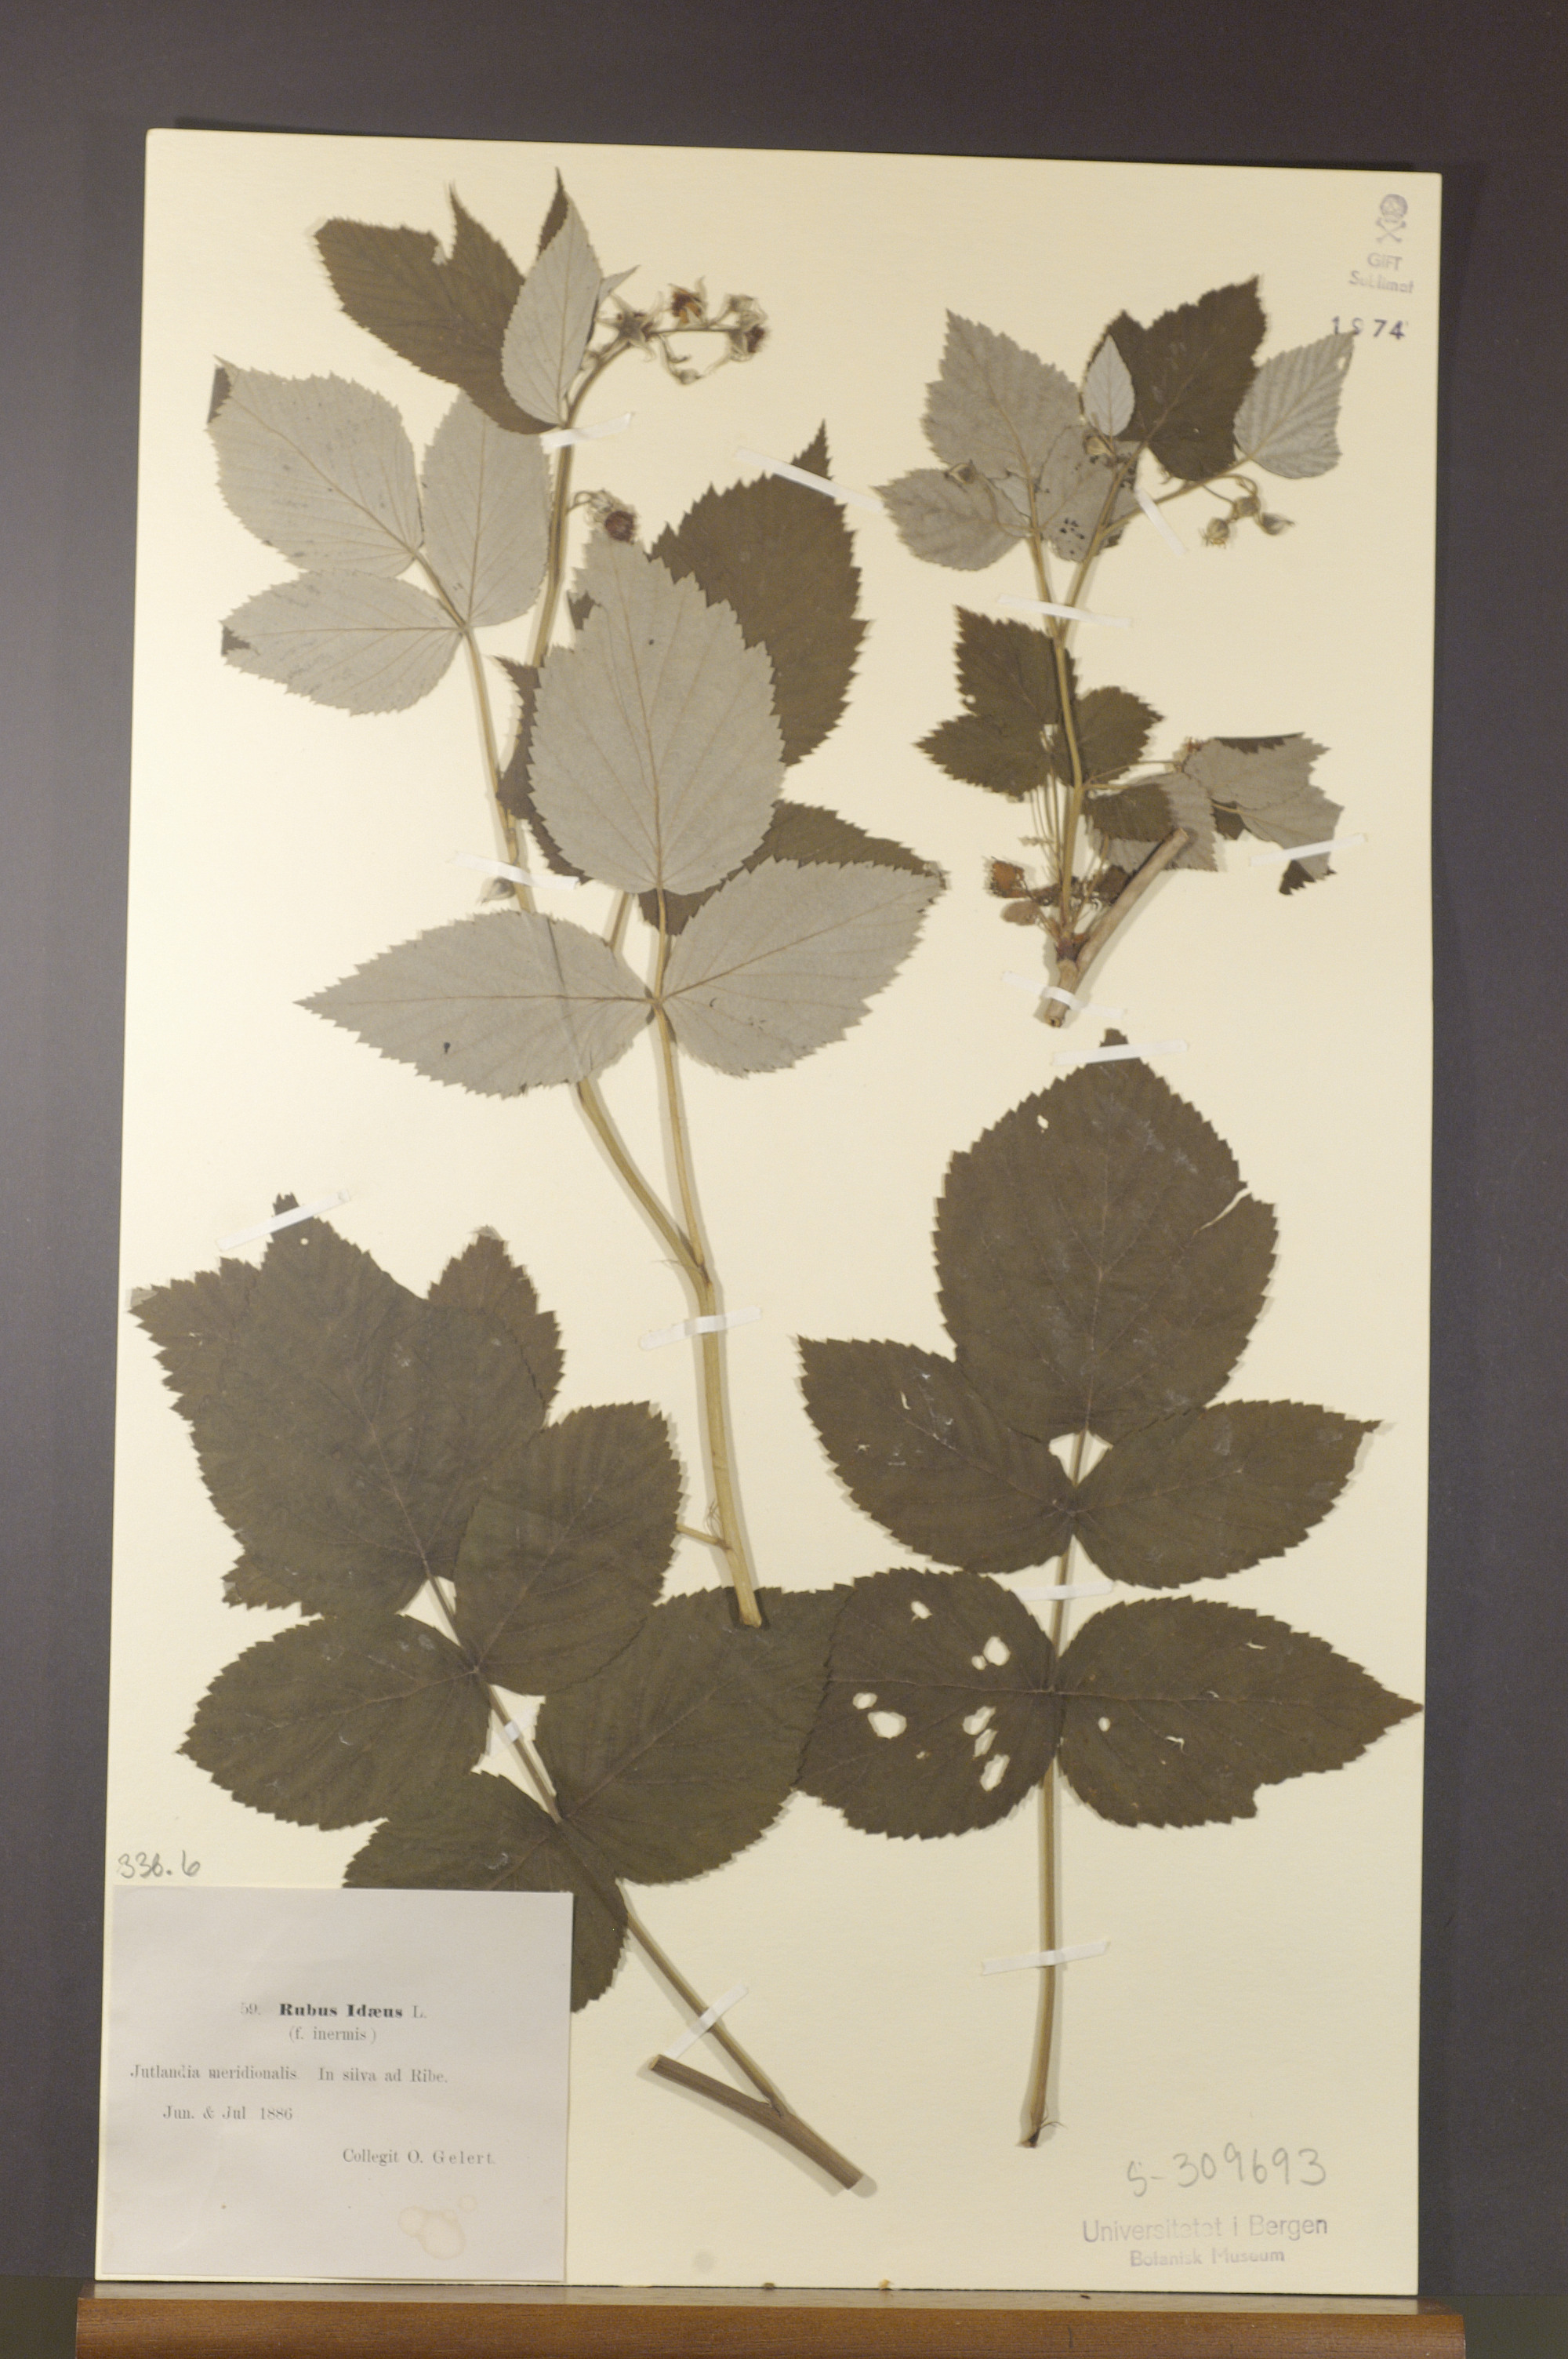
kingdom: Plantae
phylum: Tracheophyta
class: Magnoliopsida
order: Rosales
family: Rosaceae
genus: Rubus
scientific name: Rubus idaeus
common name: Raspberry
